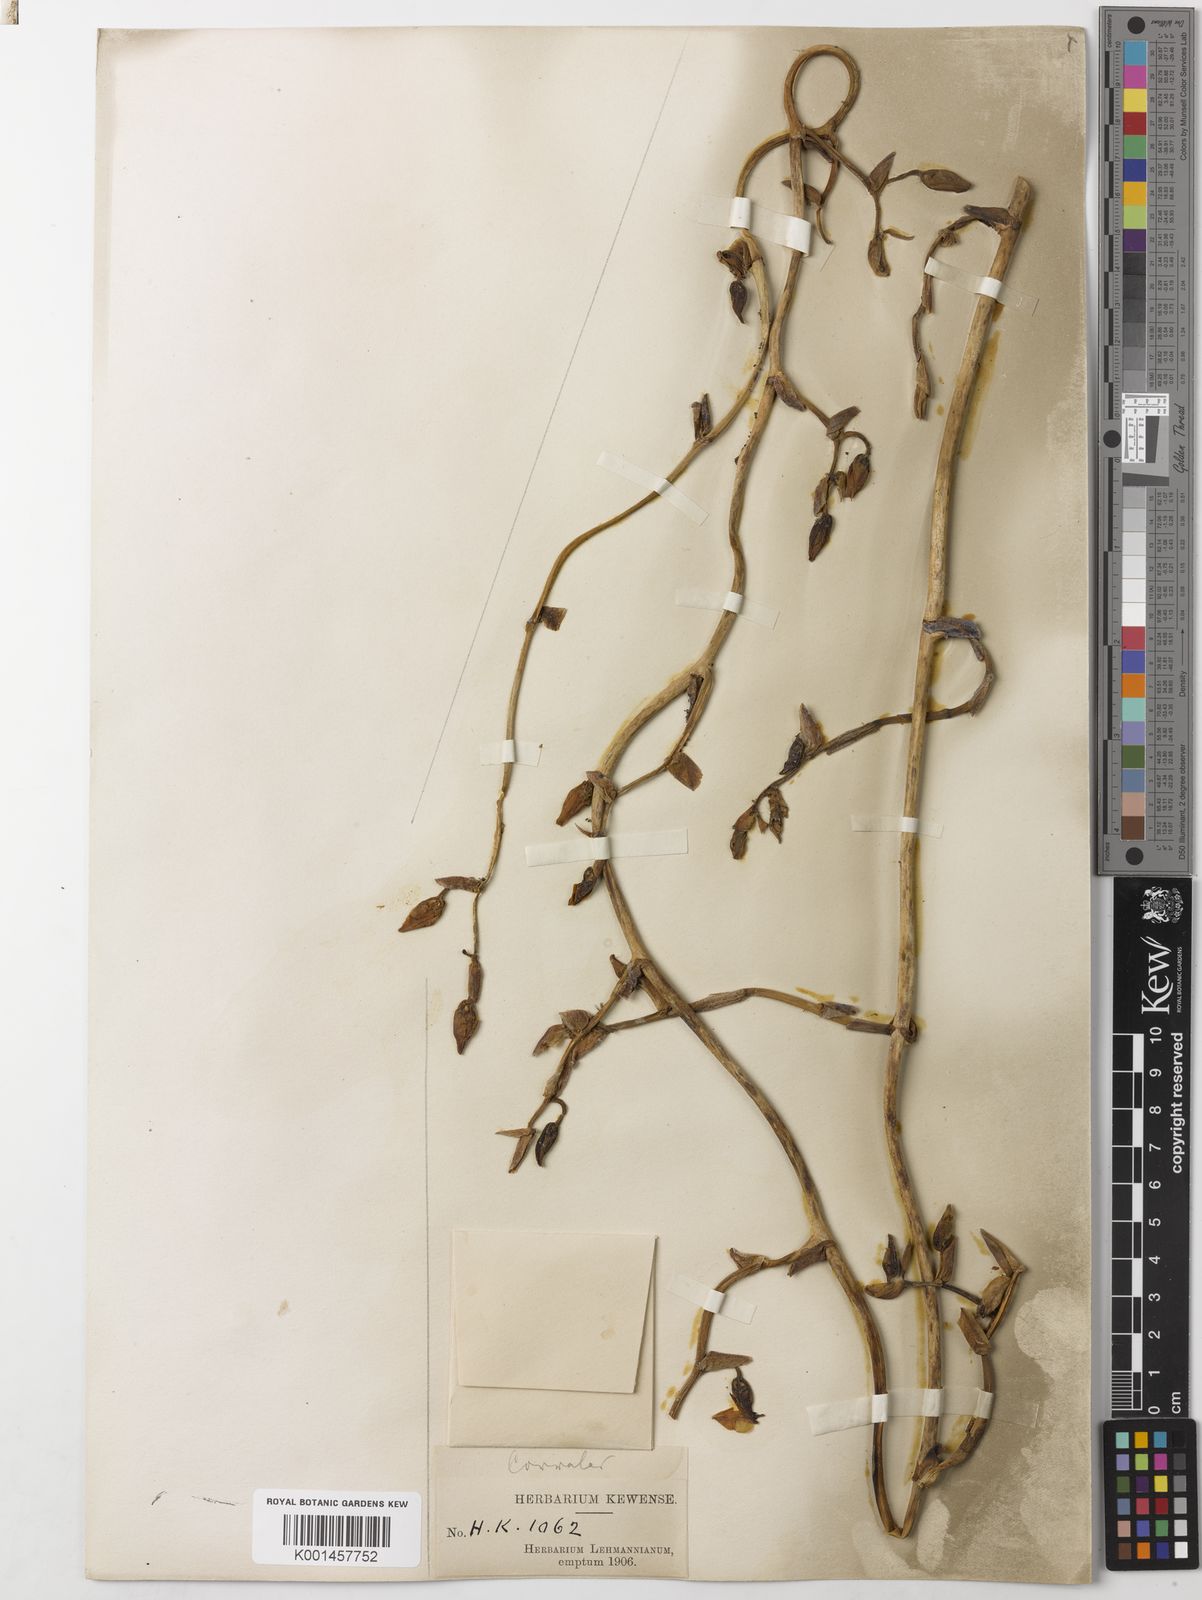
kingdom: Plantae
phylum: Tracheophyta
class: Liliopsida
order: Asparagales
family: Orchidaceae
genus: Cyrtochilum
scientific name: Cyrtochilum xanthodon
